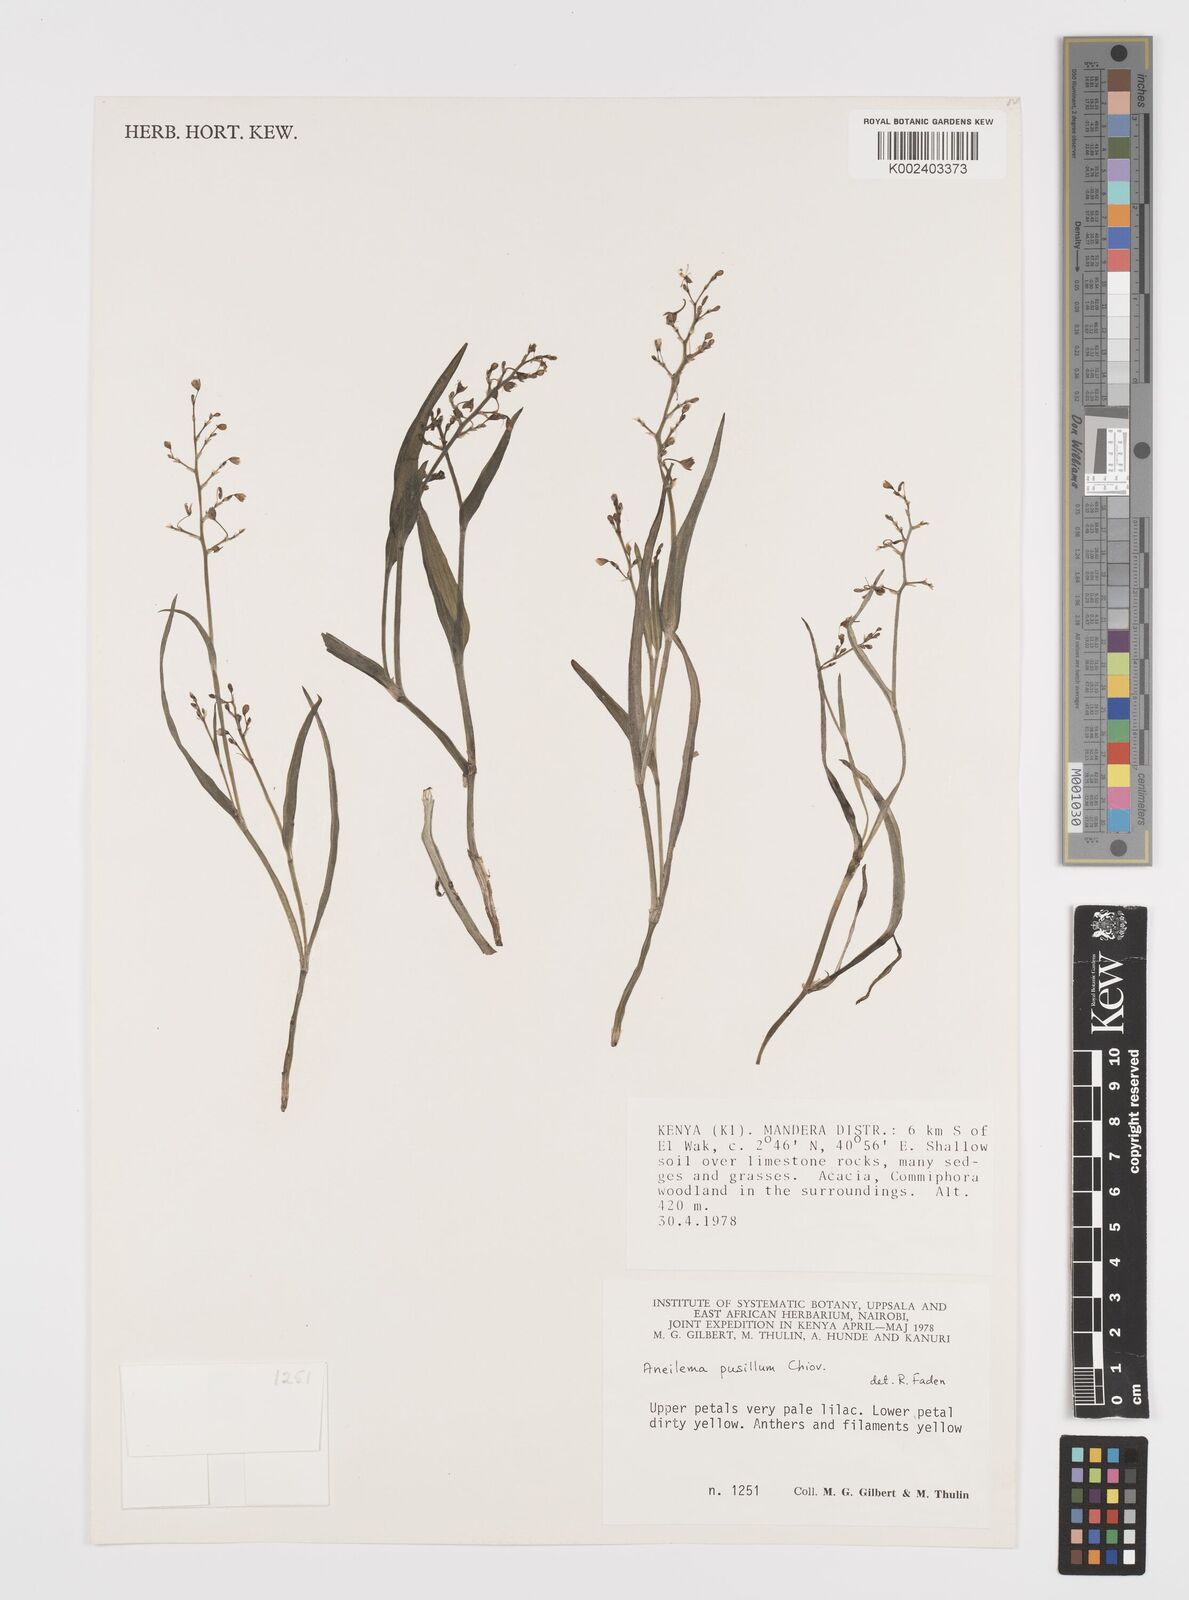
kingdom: Plantae
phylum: Tracheophyta
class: Liliopsida
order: Commelinales
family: Commelinaceae
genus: Aneilema
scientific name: Aneilema pusillum
